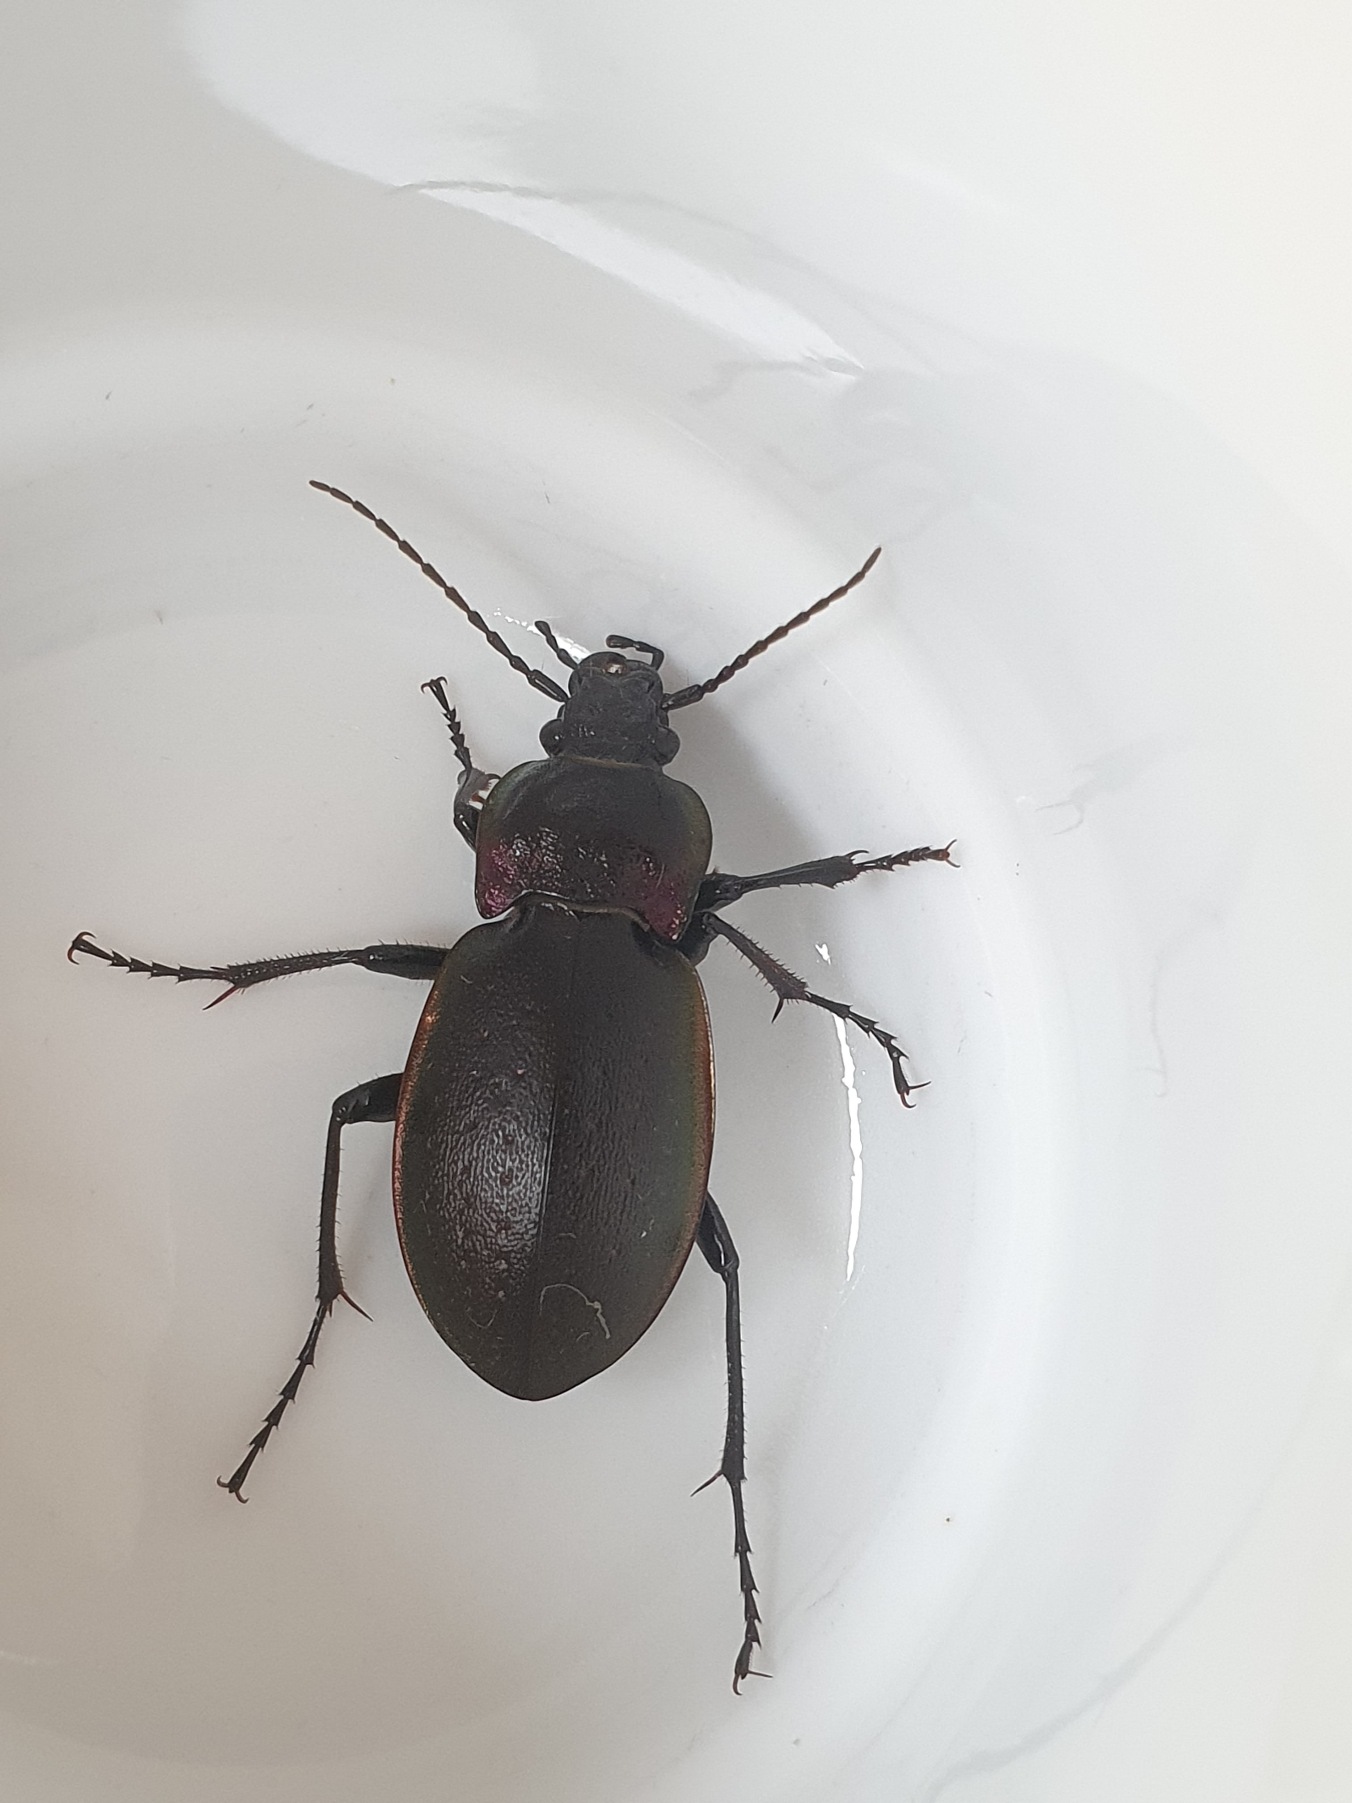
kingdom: Animalia
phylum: Arthropoda
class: Insecta
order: Coleoptera
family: Carabidae
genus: Carabus
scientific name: Carabus nemoralis
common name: Kratløber
